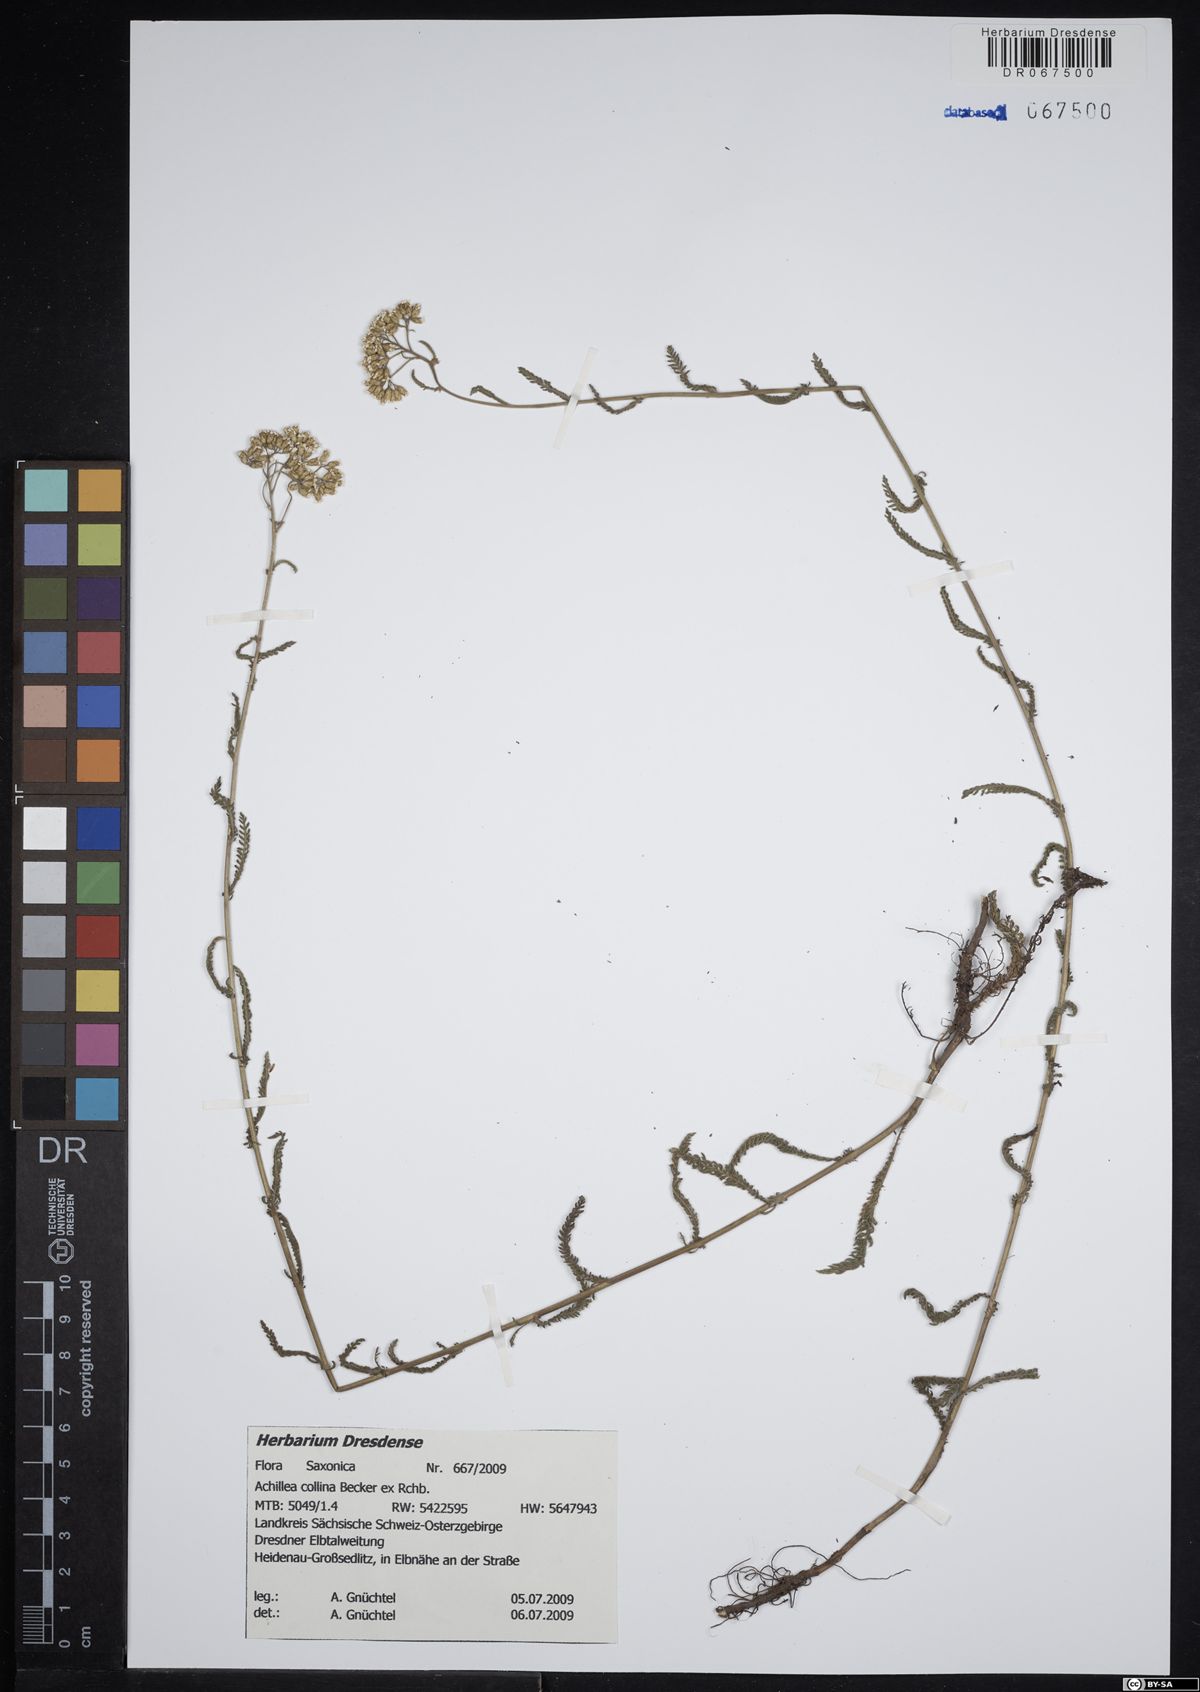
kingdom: Plantae
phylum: Tracheophyta
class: Magnoliopsida
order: Asterales
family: Asteraceae
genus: Achillea
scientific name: Achillea collina
